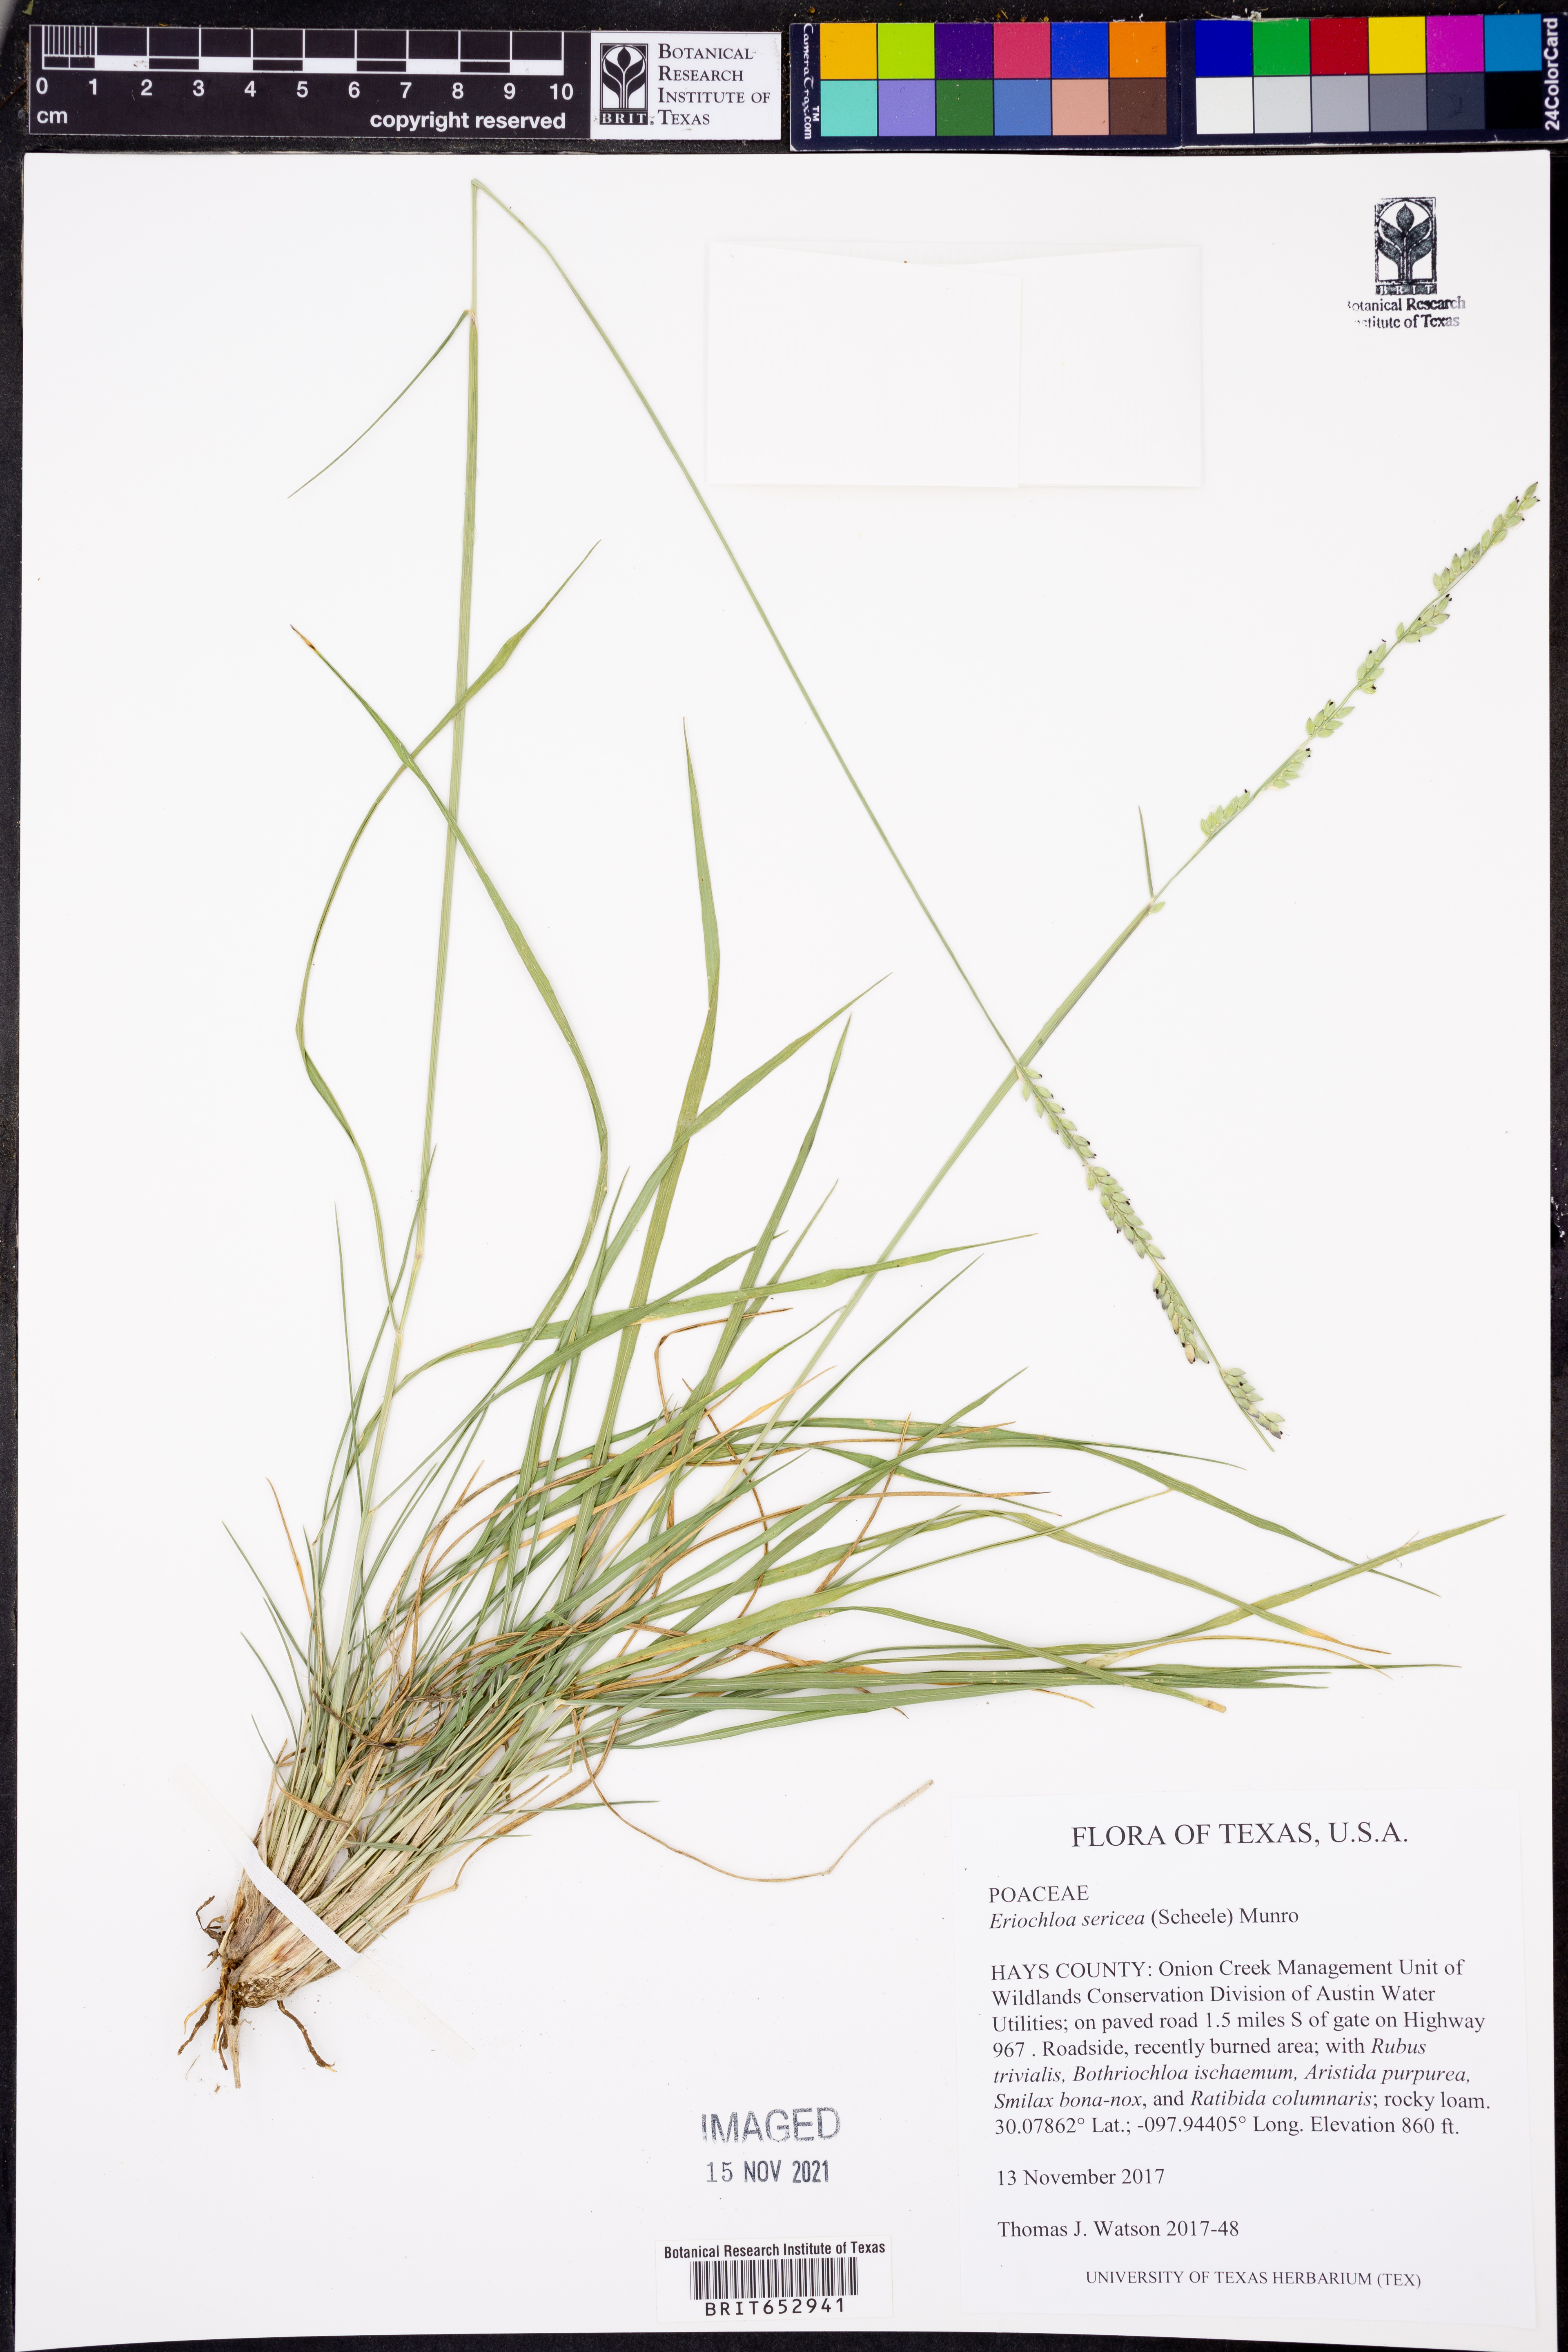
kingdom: Plantae
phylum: Tracheophyta
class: Liliopsida
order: Poales
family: Poaceae
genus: Eriochloa
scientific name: Eriochloa sericea
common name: Texas cup grass
